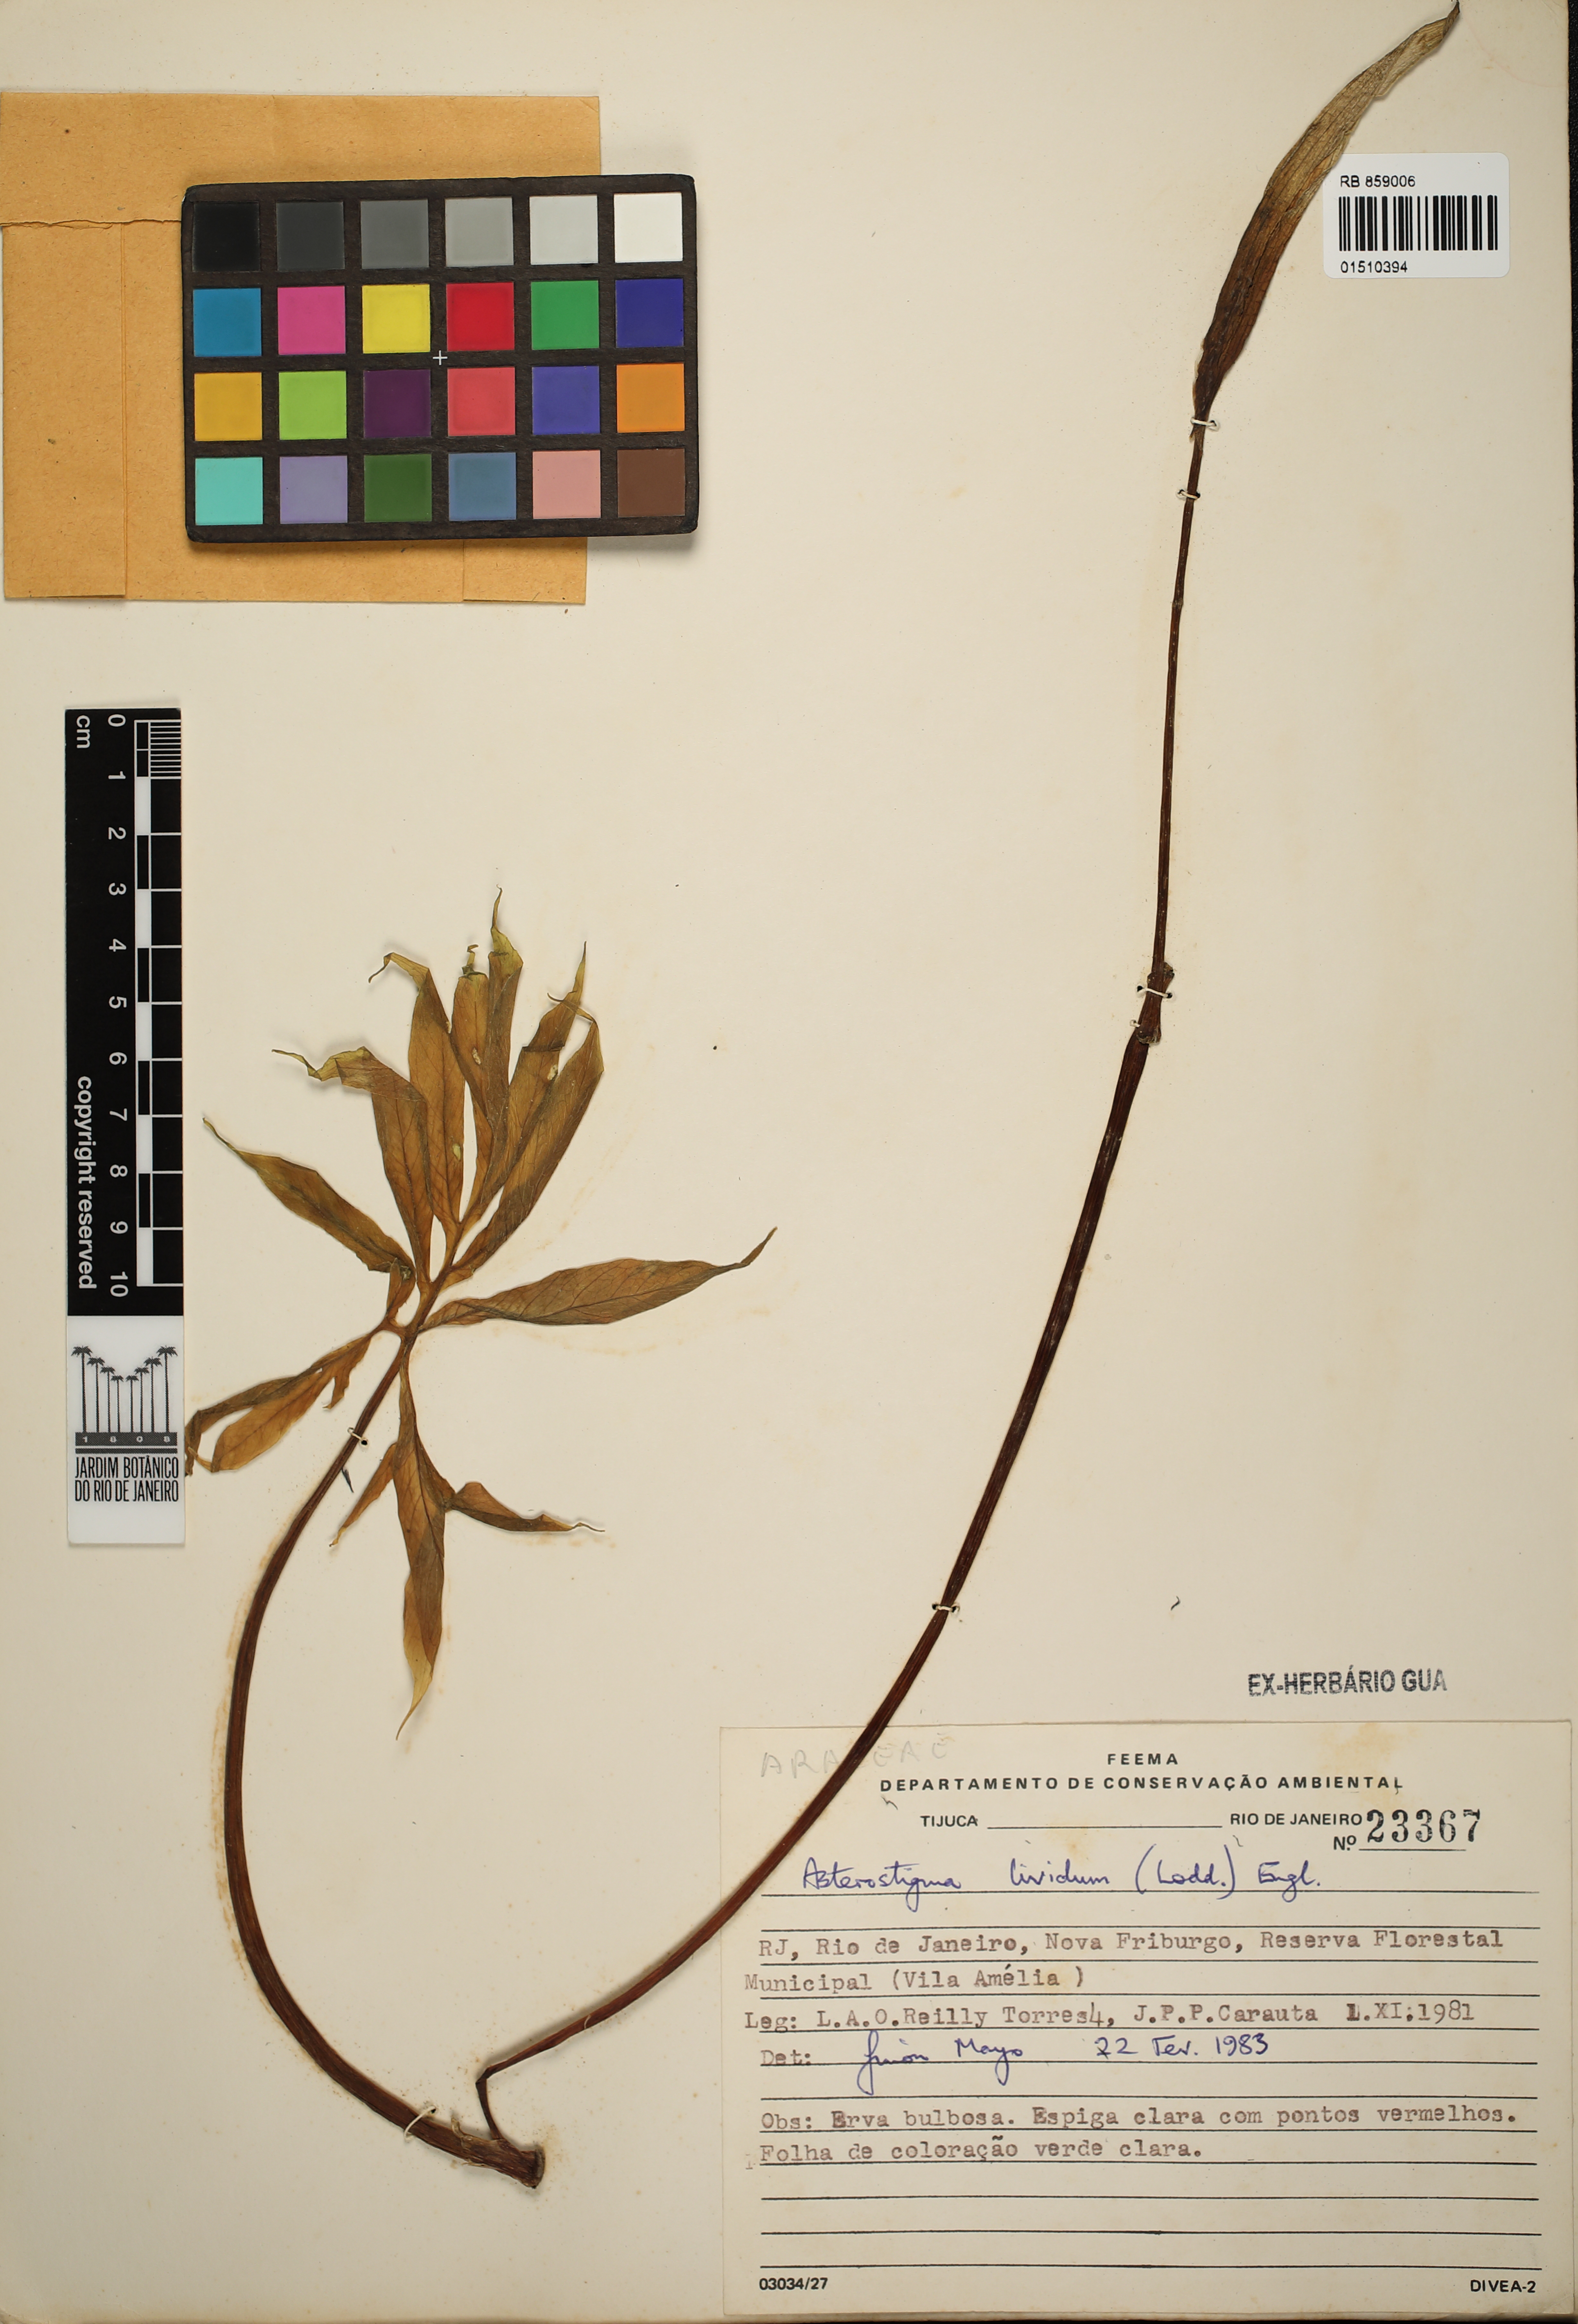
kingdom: Plantae
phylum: Tracheophyta
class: Liliopsida
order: Alismatales
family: Araceae
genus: Asterostigma
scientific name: Asterostigma luridum
